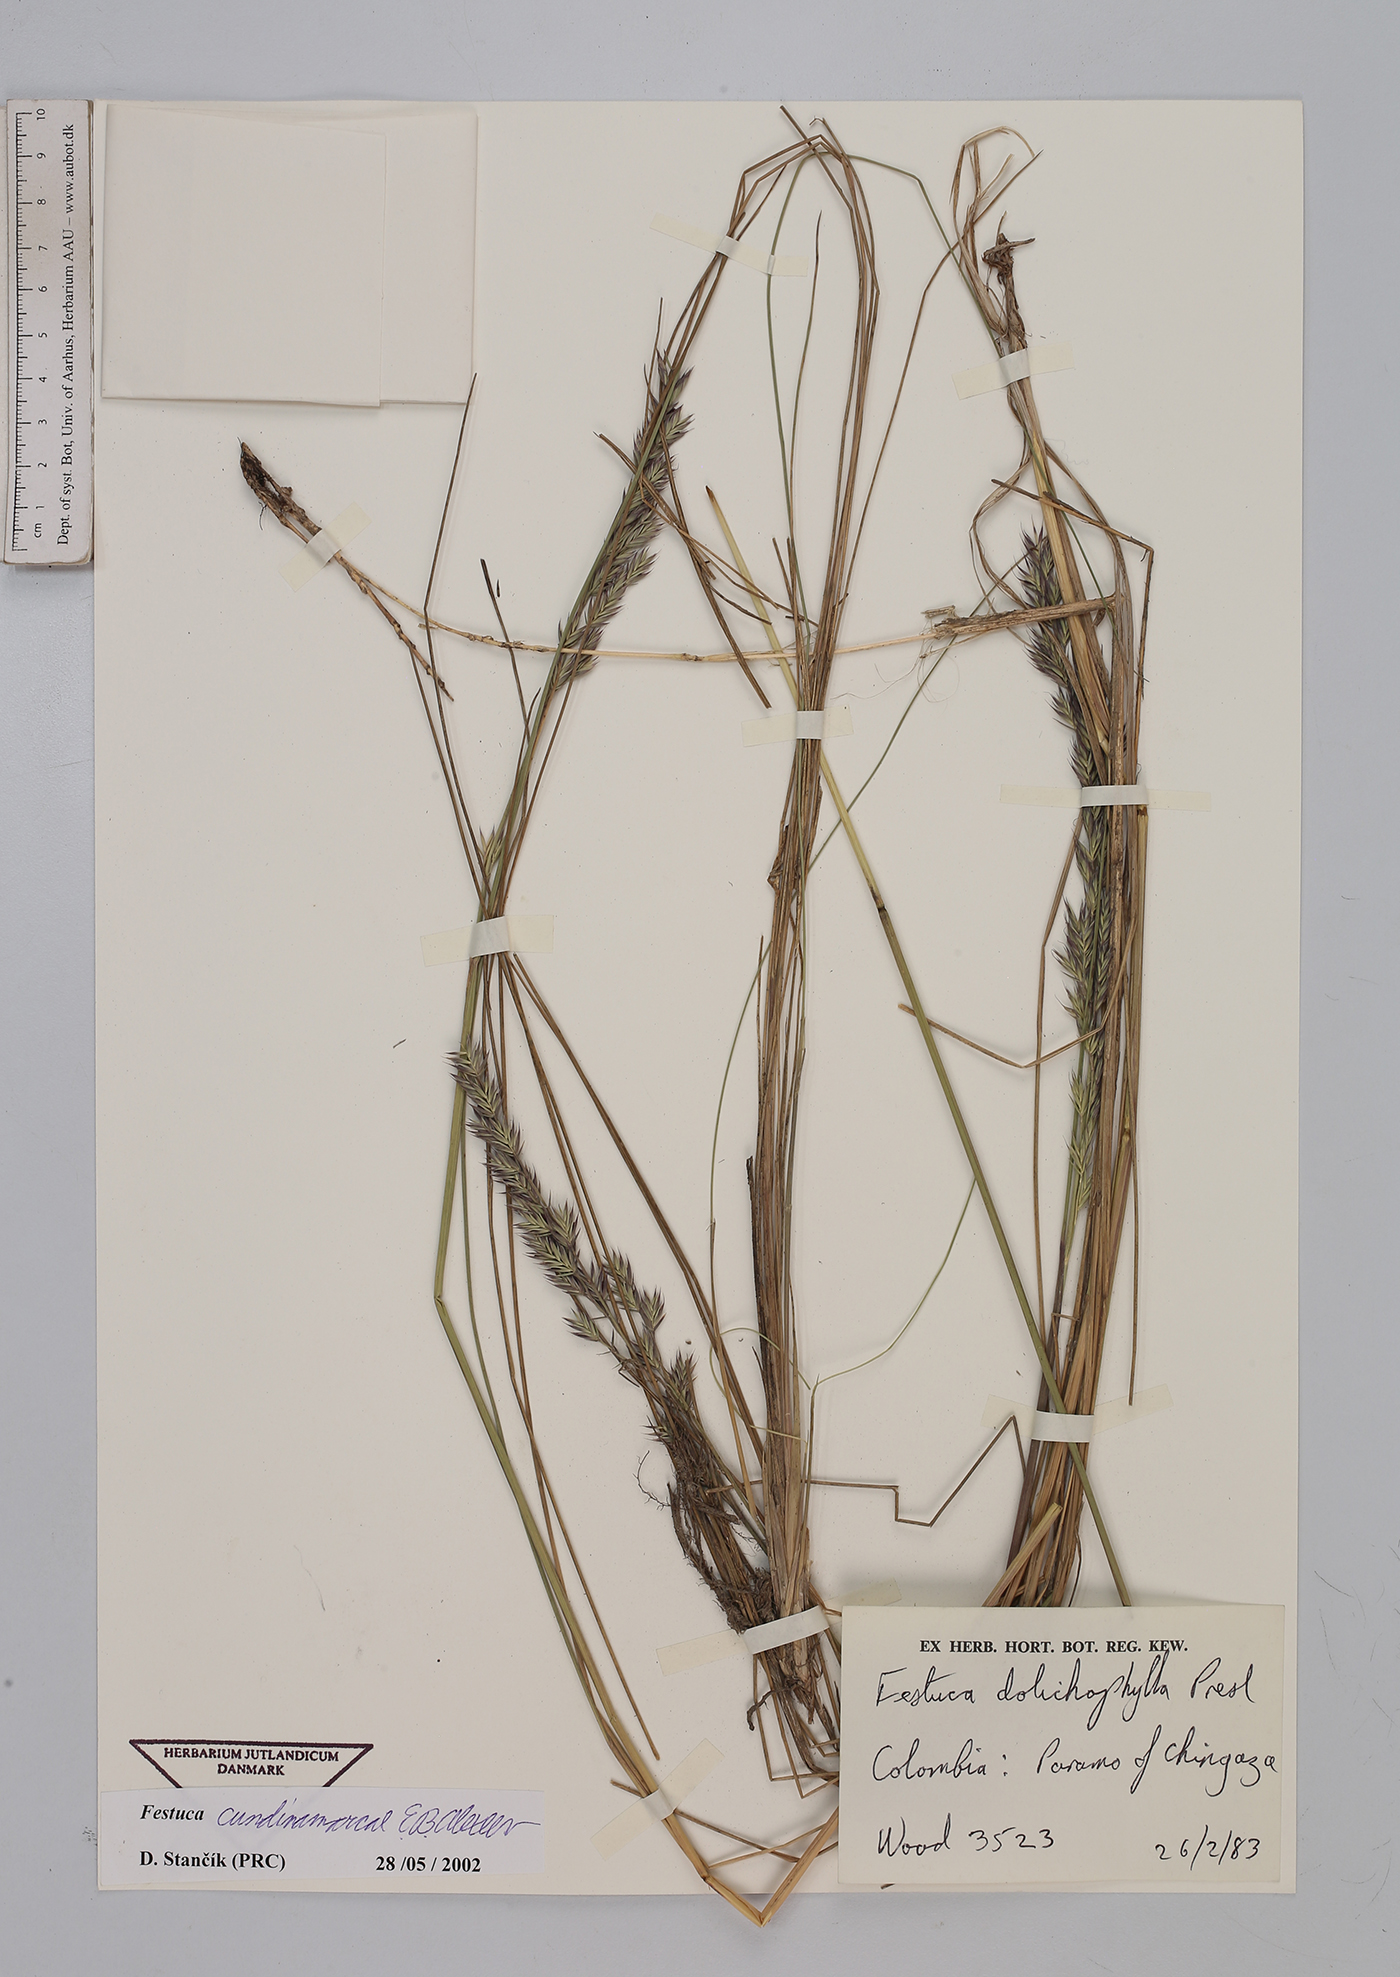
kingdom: Plantae
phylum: Tracheophyta
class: Liliopsida
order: Poales
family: Poaceae
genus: Festuca
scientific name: Festuca cundinamarcae
